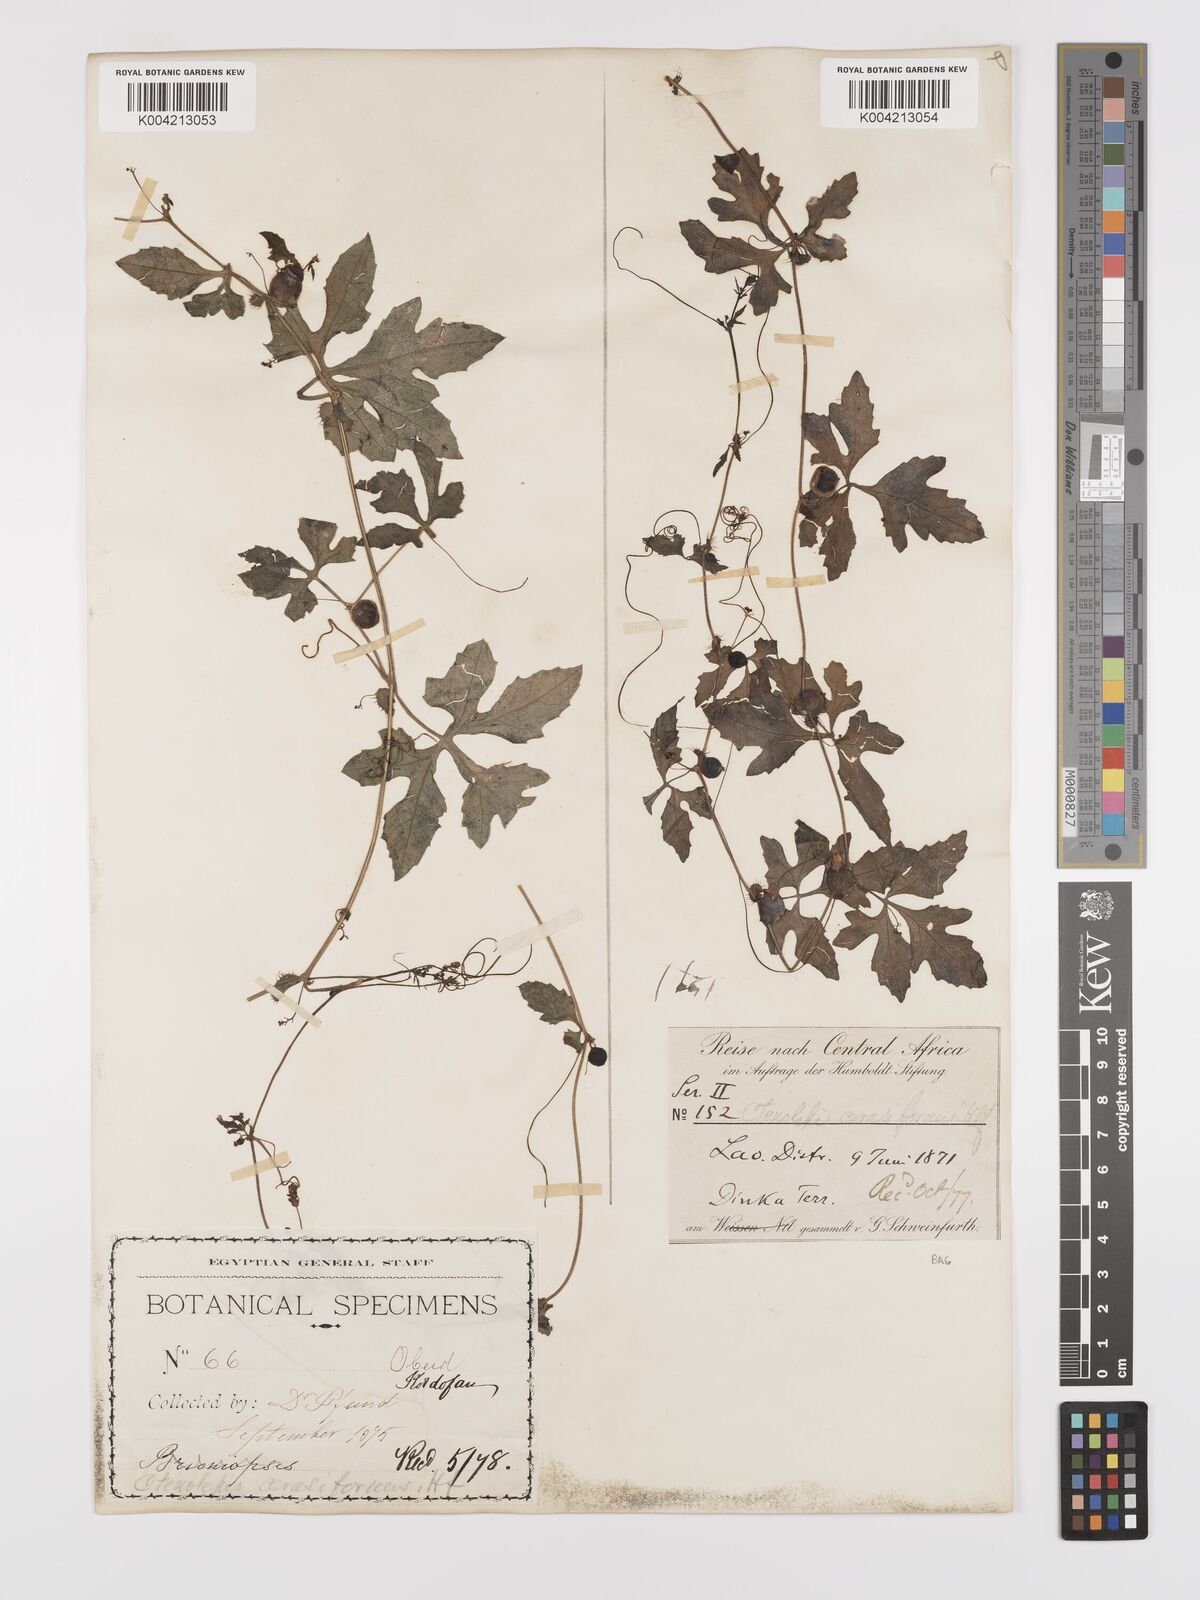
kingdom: Plantae
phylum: Tracheophyta
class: Magnoliopsida
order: Cucurbitales
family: Cucurbitaceae
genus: Blastania
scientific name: Blastania cerasiformis
